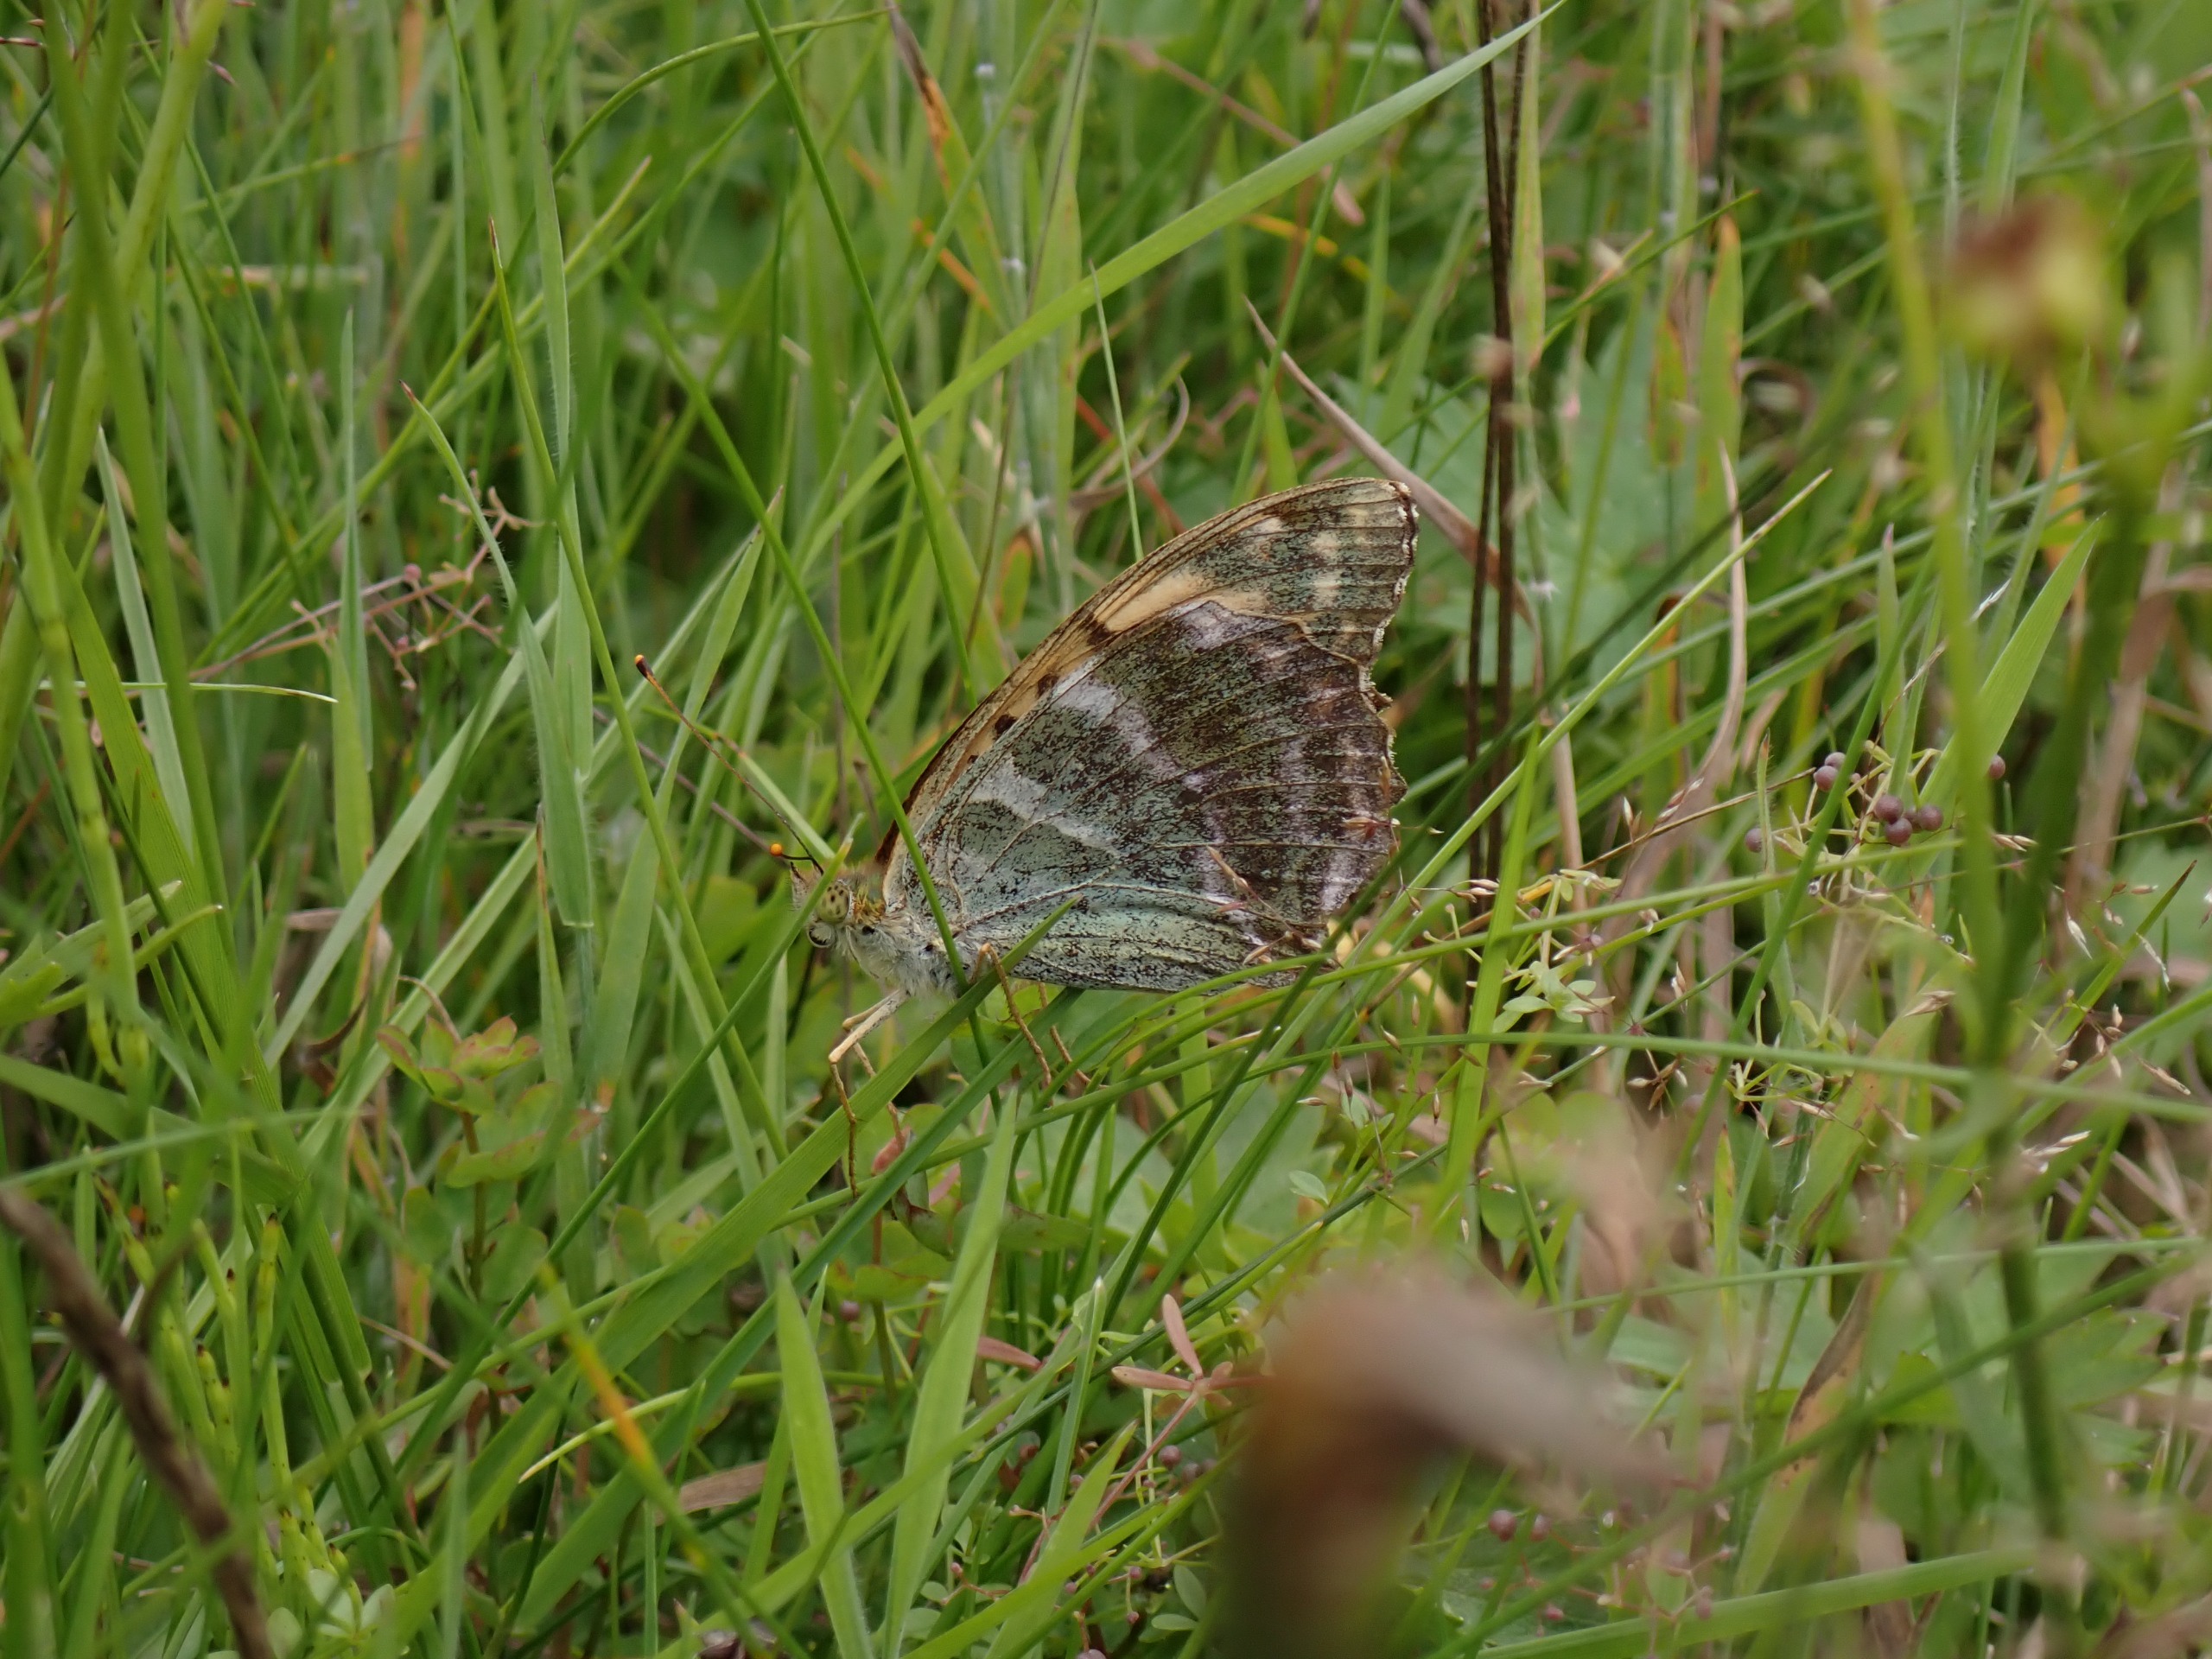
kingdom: Animalia
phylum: Arthropoda
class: Insecta
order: Lepidoptera
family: Nymphalidae
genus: Argynnis
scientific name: Argynnis paphia
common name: Kejserkåbe
